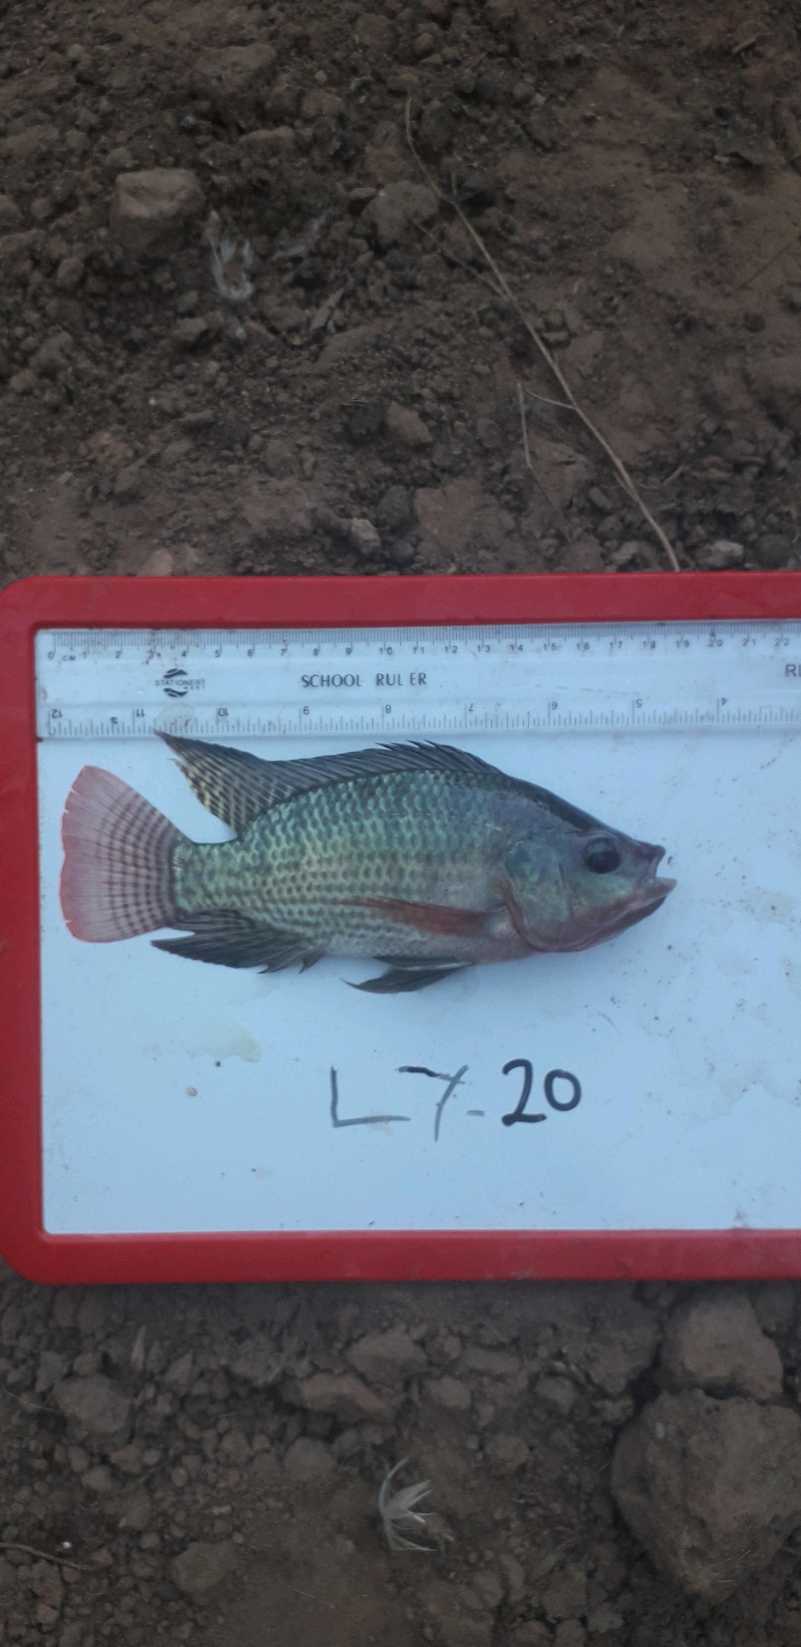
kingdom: Animalia
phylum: Chordata
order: Perciformes
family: Cichlidae
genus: Oreochromis
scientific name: Oreochromis niloticus
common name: Nile tilapia
